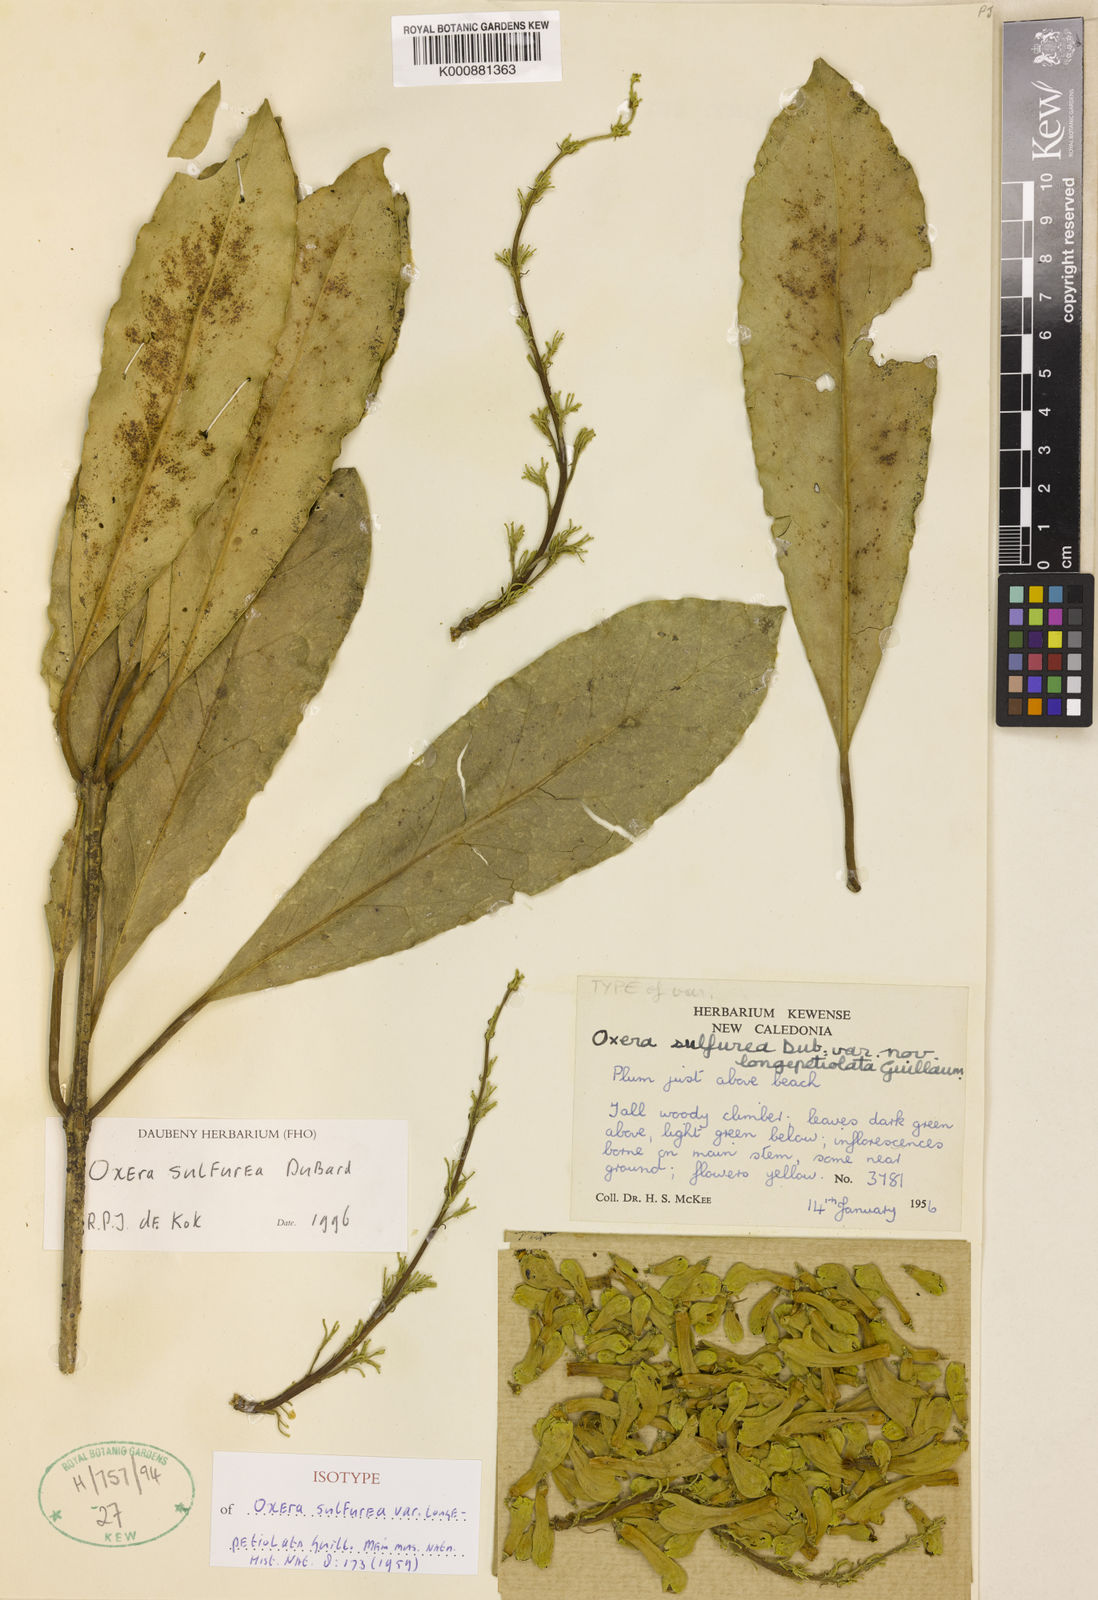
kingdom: Plantae
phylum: Tracheophyta
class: Magnoliopsida
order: Lamiales
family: Lamiaceae
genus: Oxera
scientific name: Oxera sulfurea
